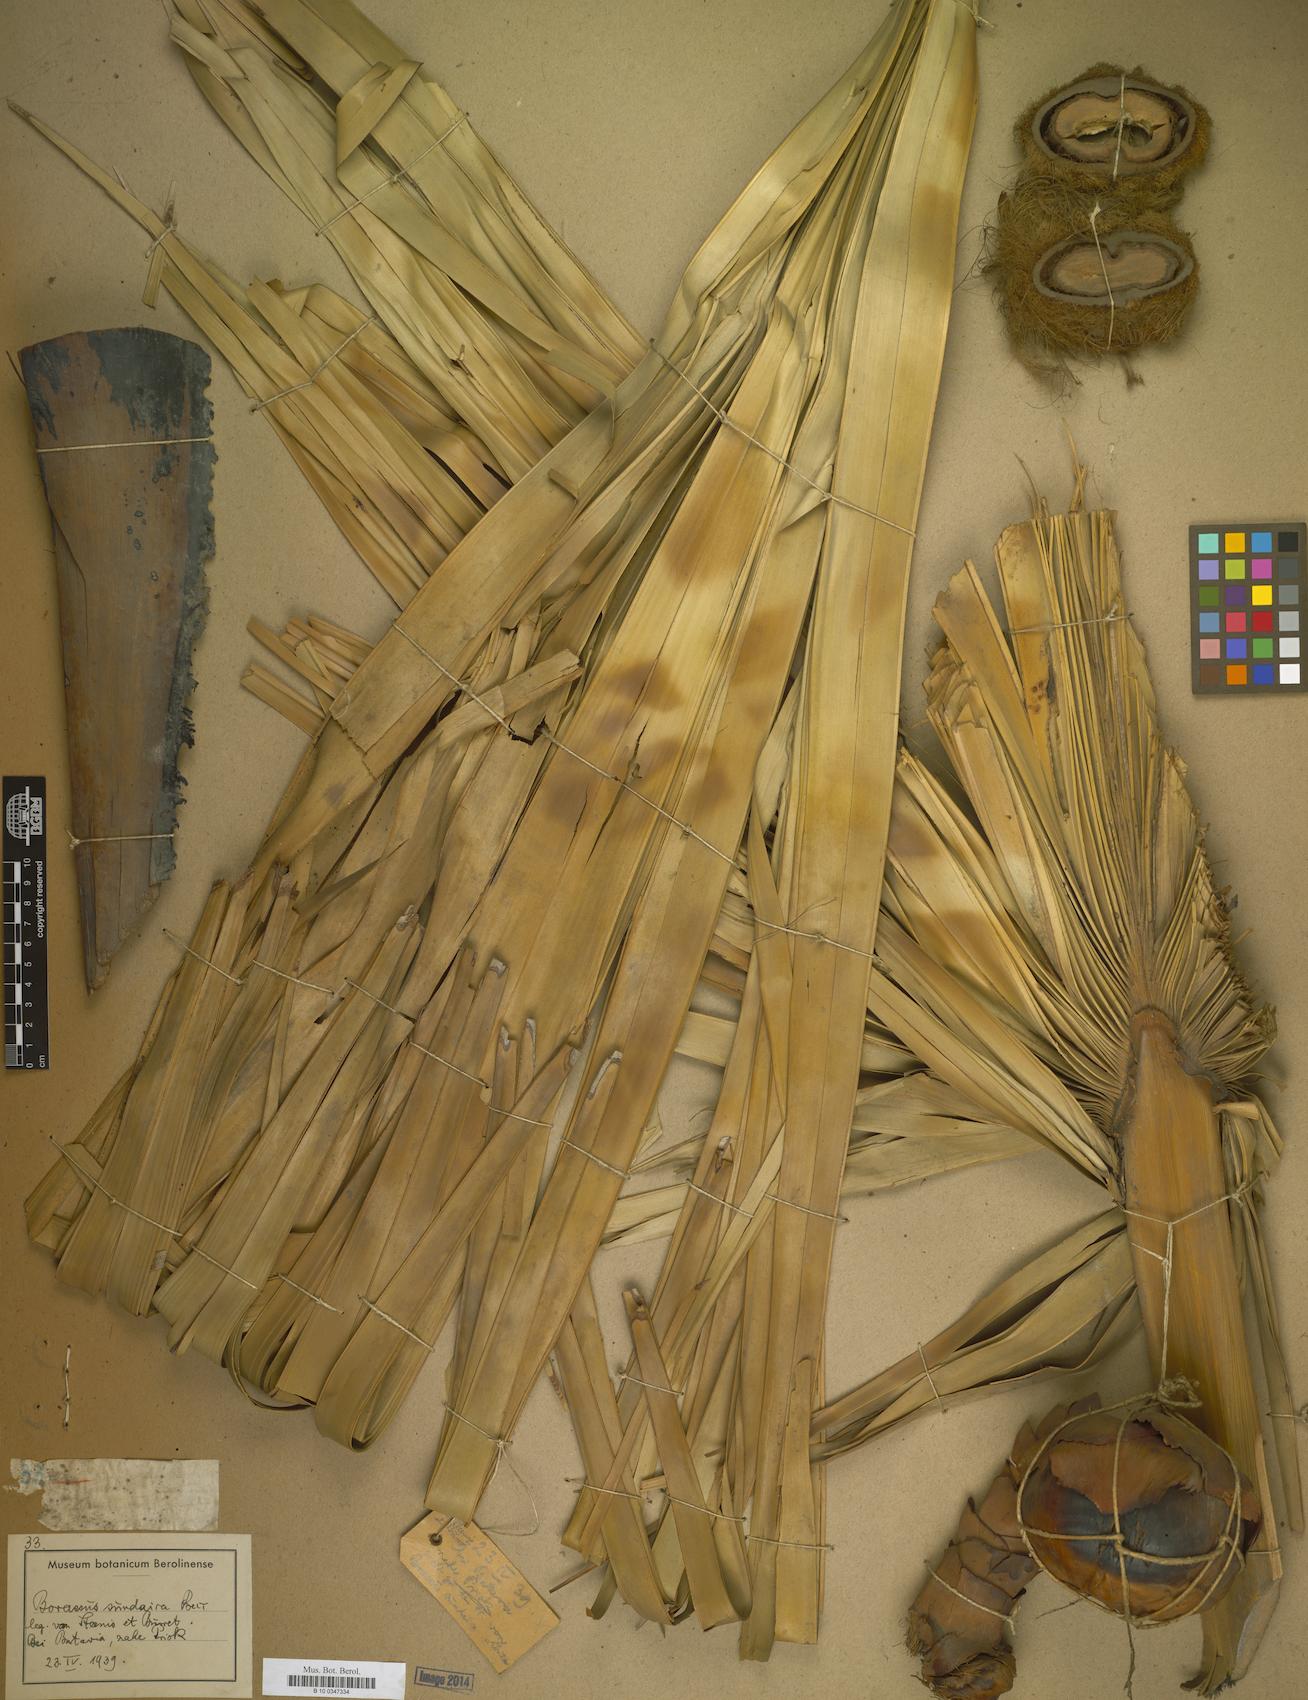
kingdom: Plantae
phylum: Tracheophyta
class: Liliopsida
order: Arecales
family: Arecaceae
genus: Borassus
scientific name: Borassus
